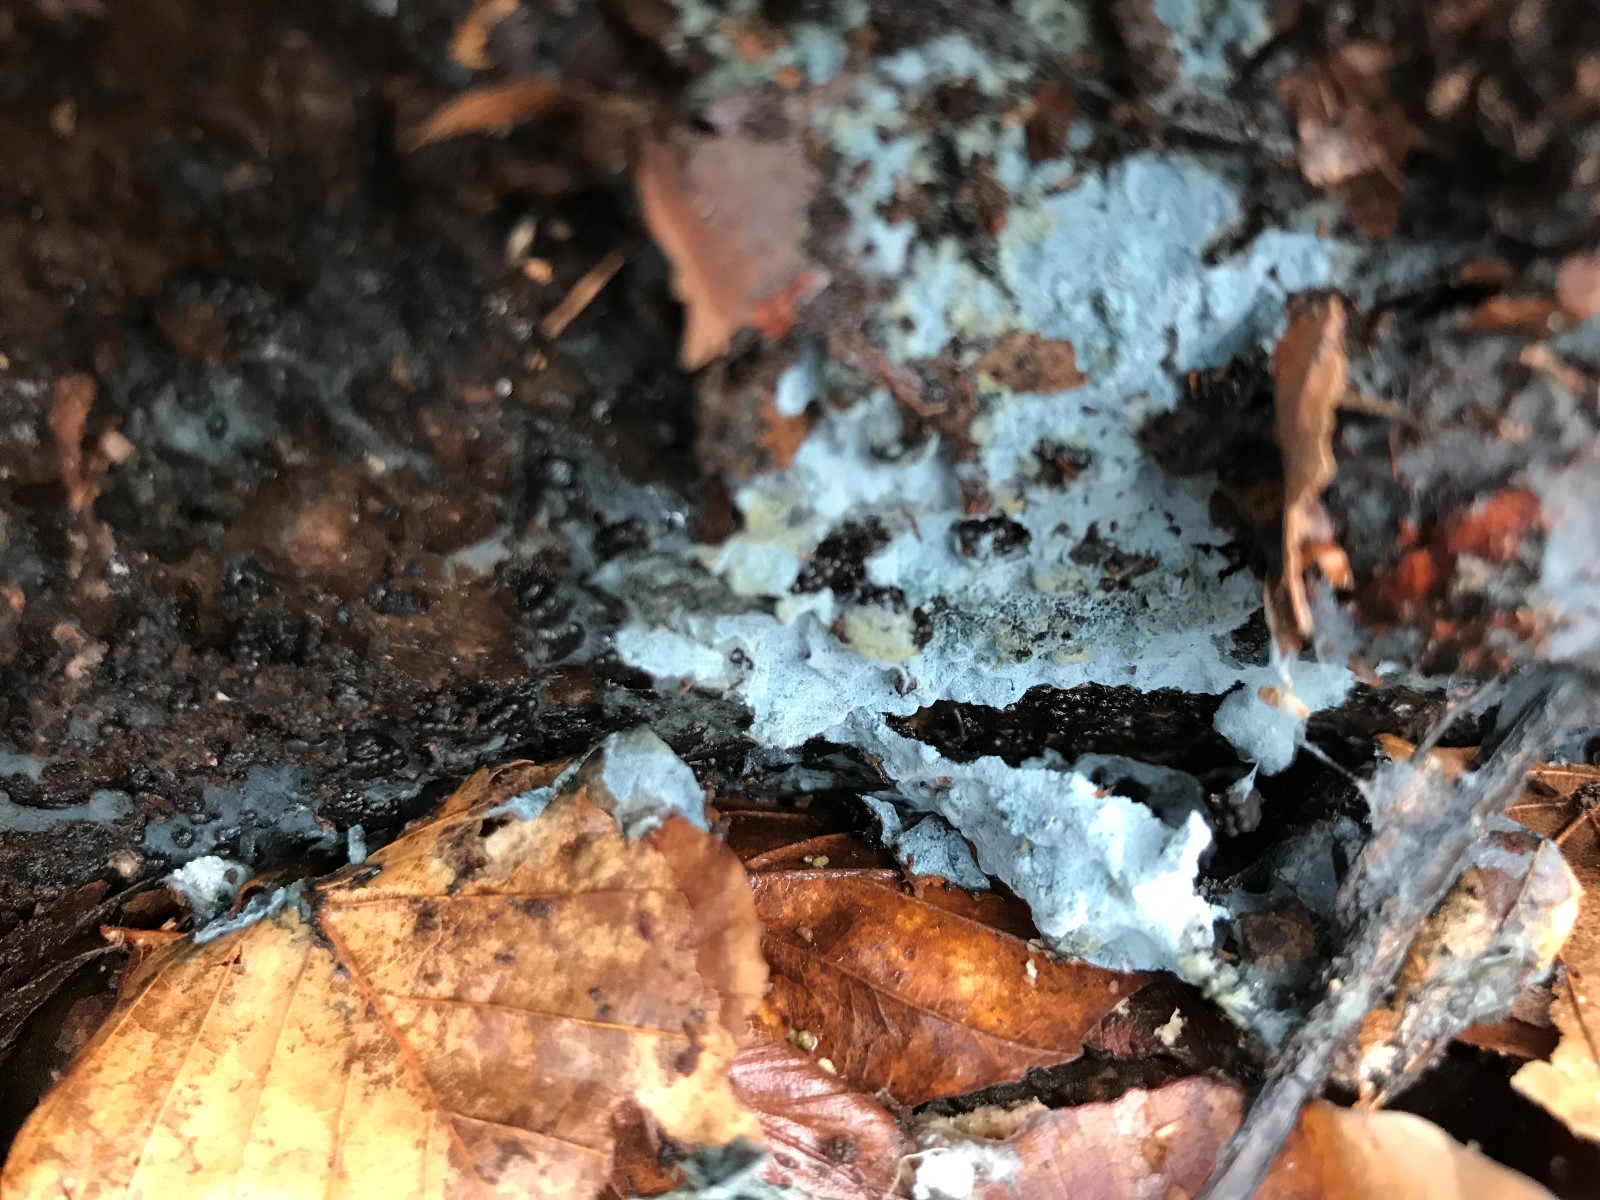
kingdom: Fungi
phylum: Basidiomycota
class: Agaricomycetes
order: Atheliales
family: Atheliaceae
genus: Byssocorticium
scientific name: Byssocorticium atrovirens
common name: blå førnehinde
